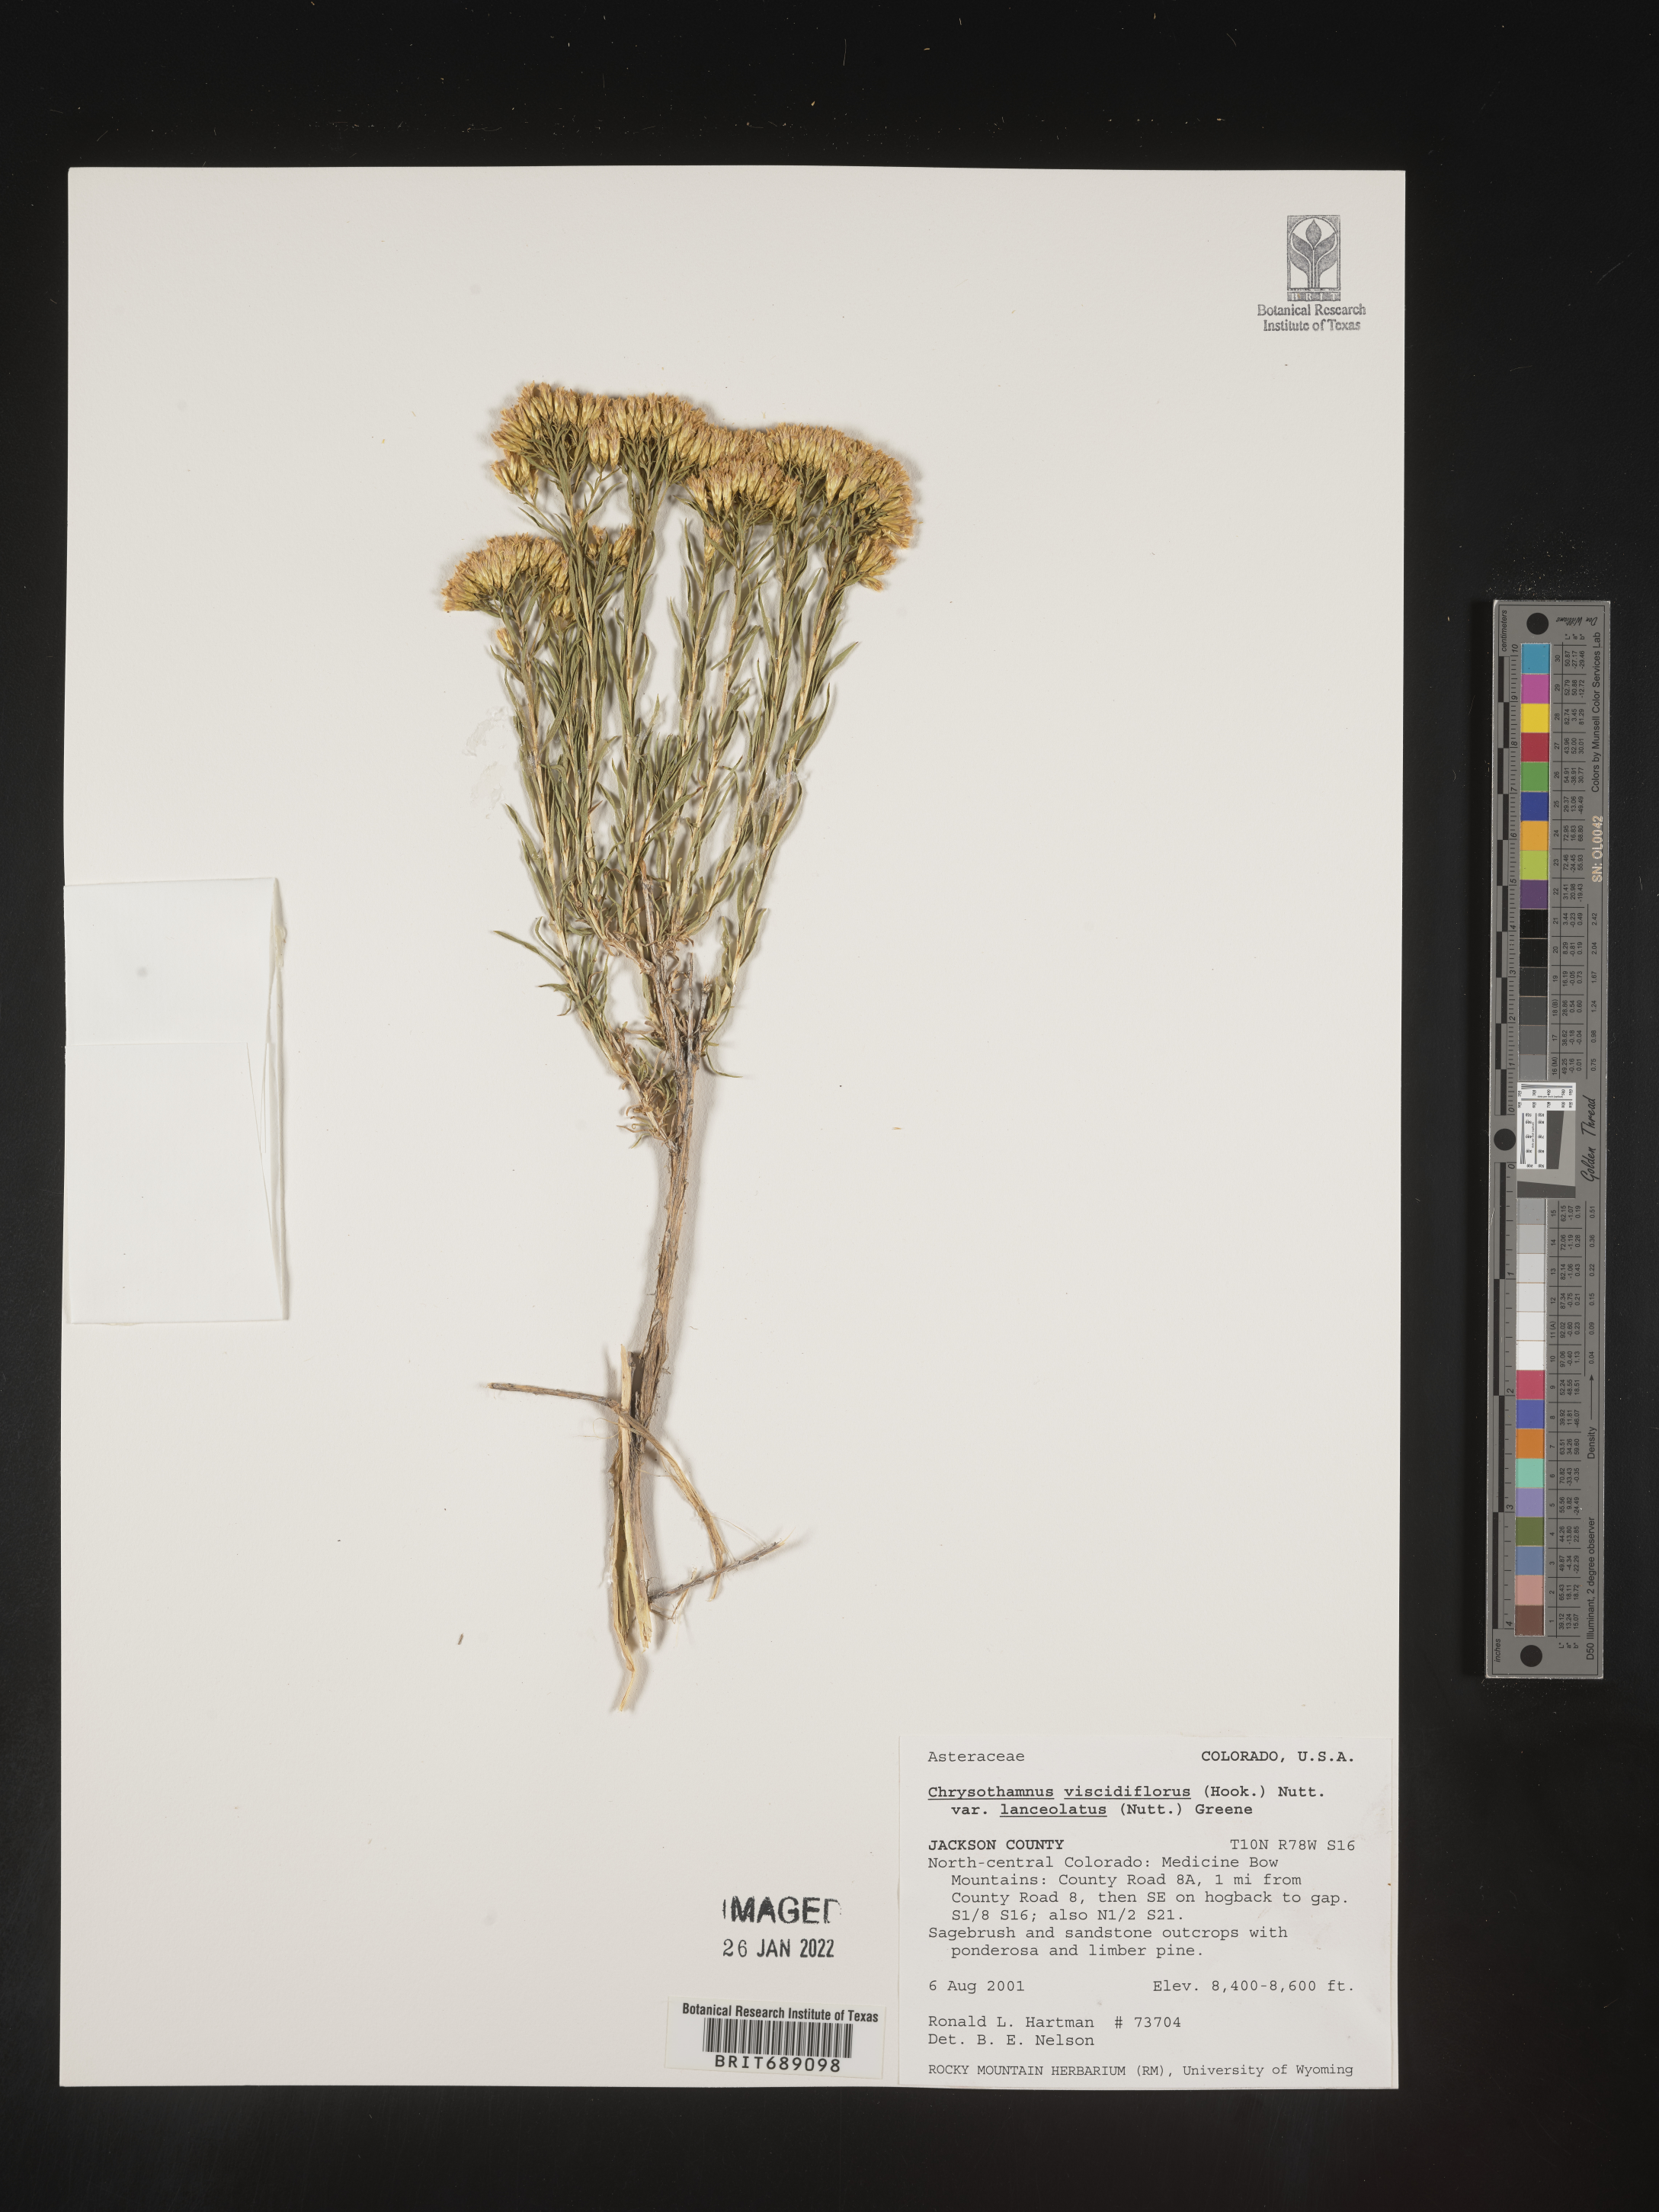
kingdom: Plantae
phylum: Tracheophyta
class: Magnoliopsida
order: Asterales
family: Asteraceae
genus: Chrysothamnus
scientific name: Chrysothamnus viscidiflorus
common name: Yellow rabbitbrush
